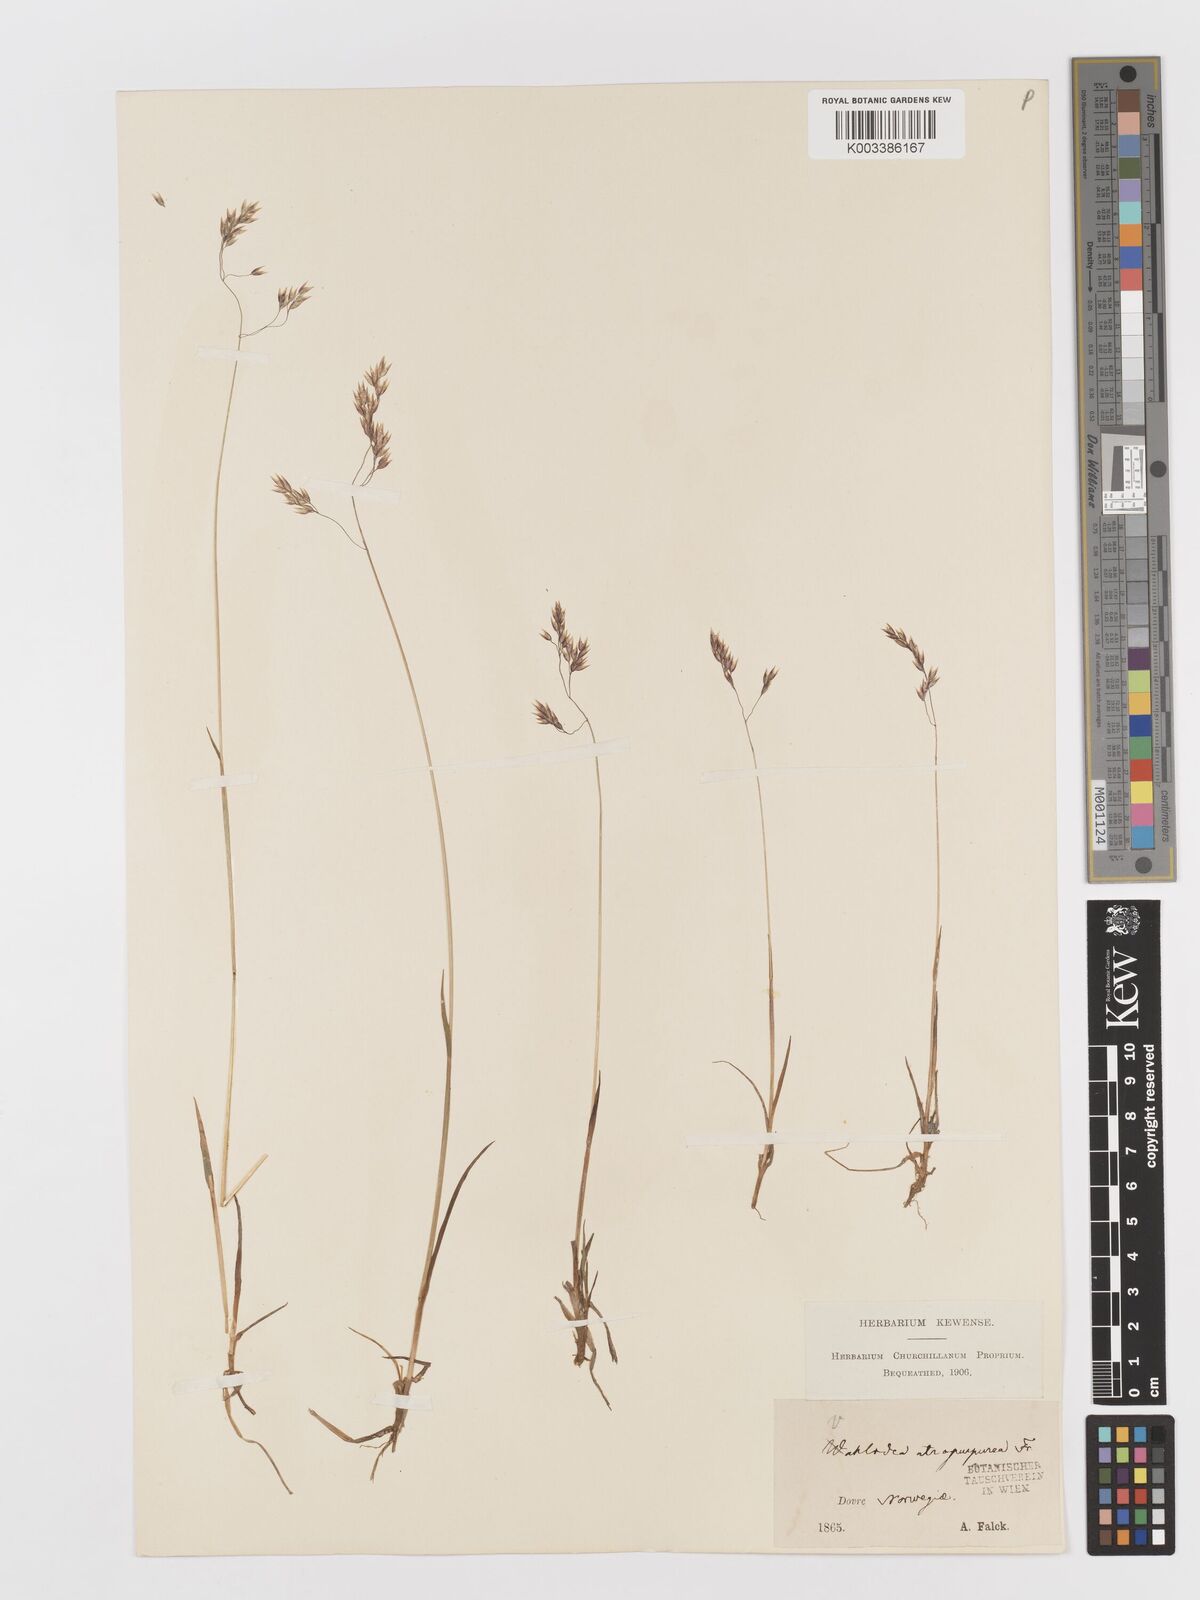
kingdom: Plantae
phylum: Tracheophyta
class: Liliopsida
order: Poales
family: Poaceae
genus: Vahlodea
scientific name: Vahlodea atropurpurea
